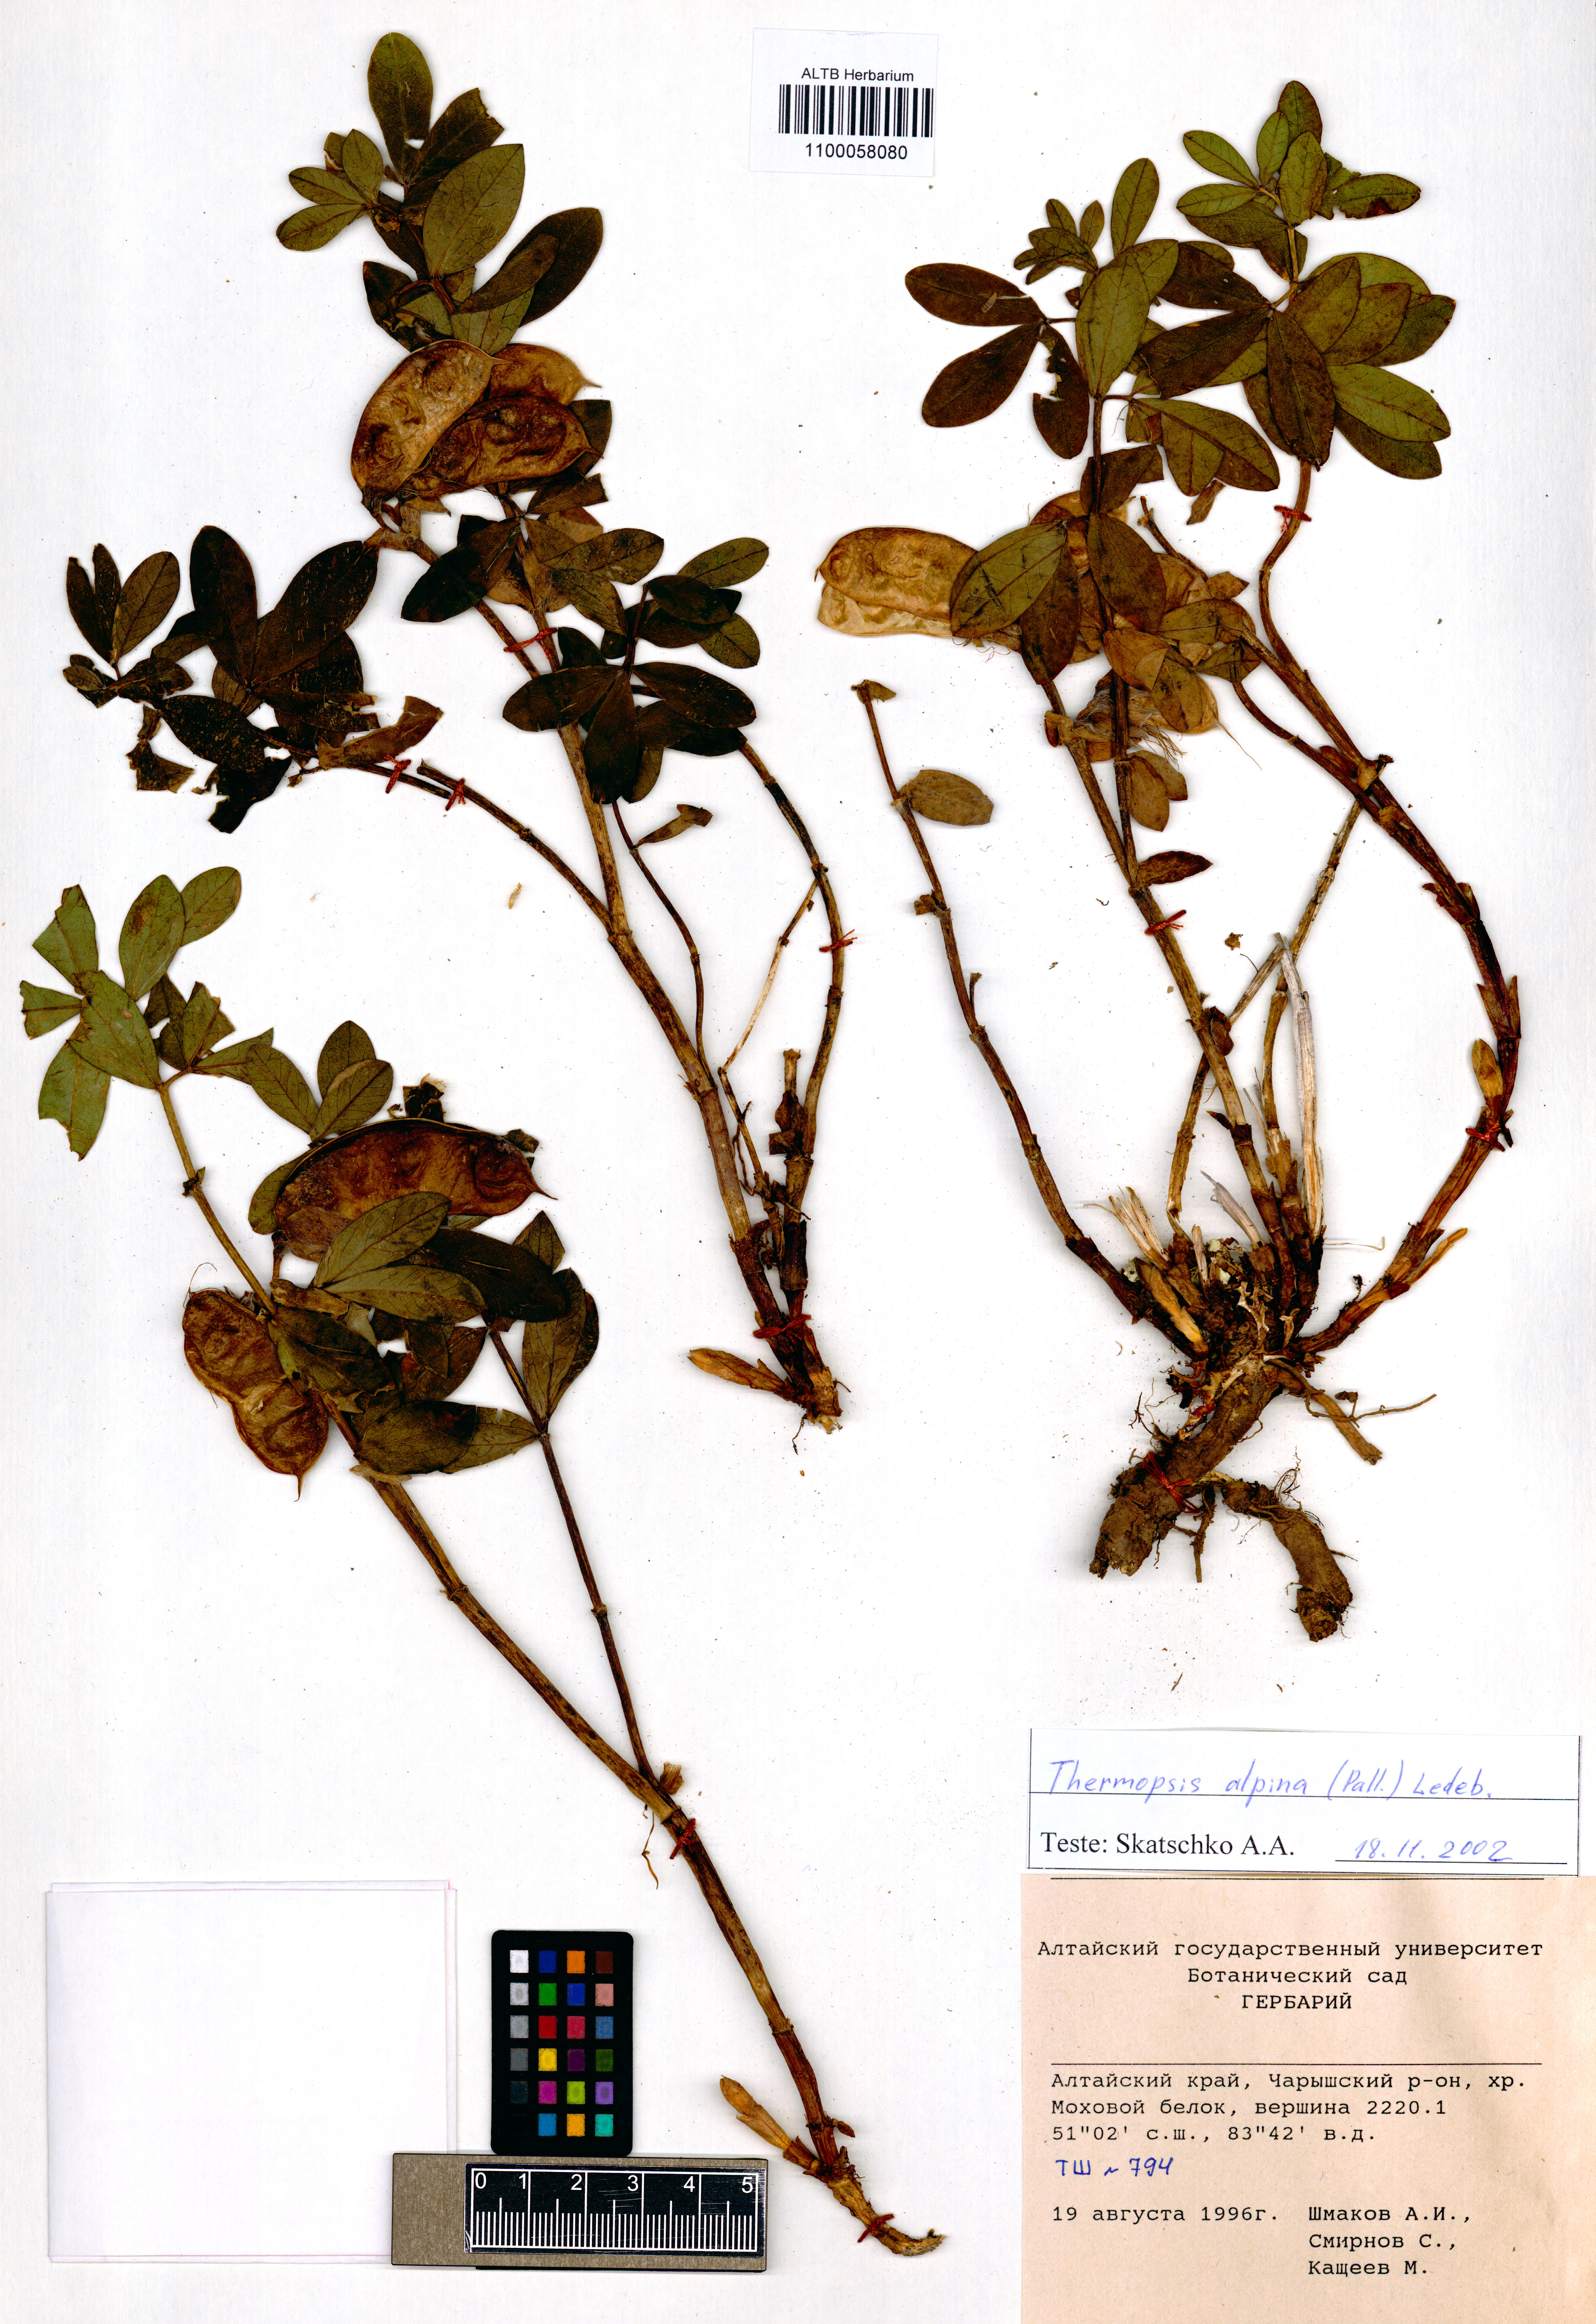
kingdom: Plantae
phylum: Tracheophyta
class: Magnoliopsida
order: Fabales
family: Fabaceae
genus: Thermopsis
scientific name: Thermopsis alpina
